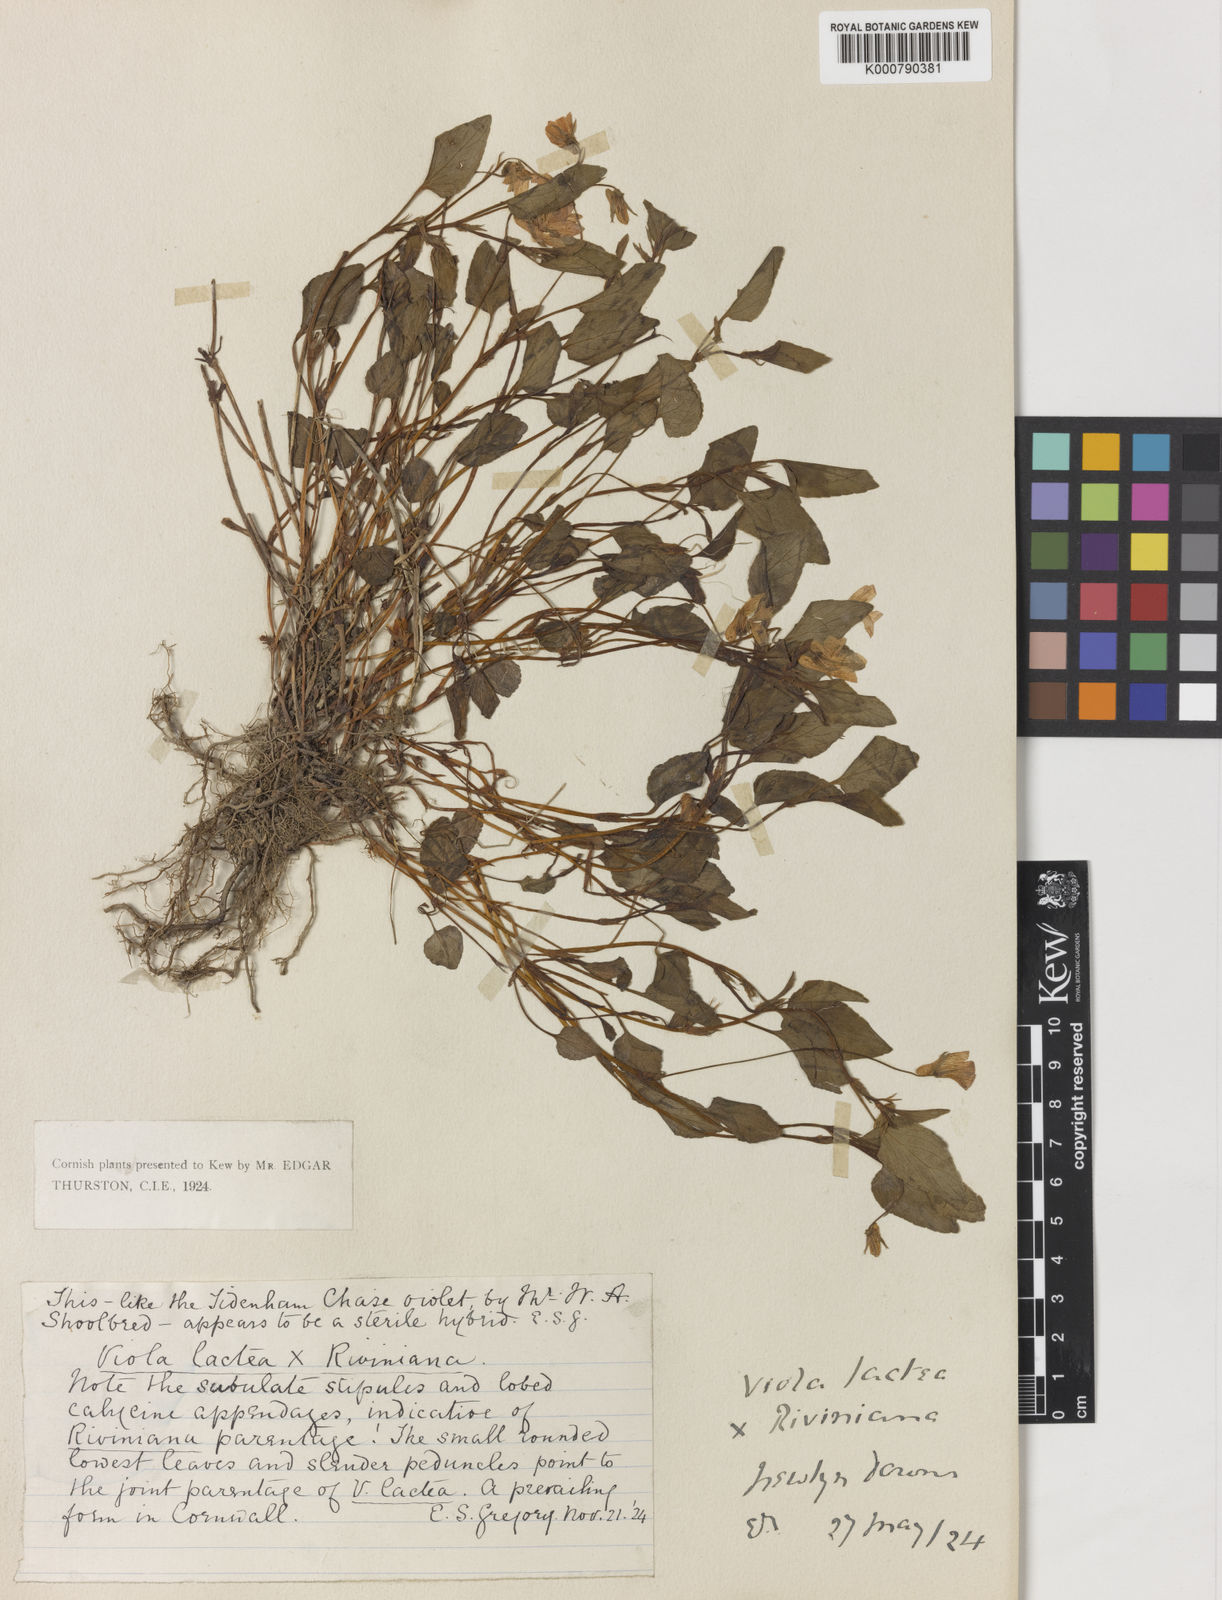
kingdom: Plantae
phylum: Tracheophyta
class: Magnoliopsida
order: Malpighiales
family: Violaceae
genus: Viola
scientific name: Viola lactea
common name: Pale dog-violet
